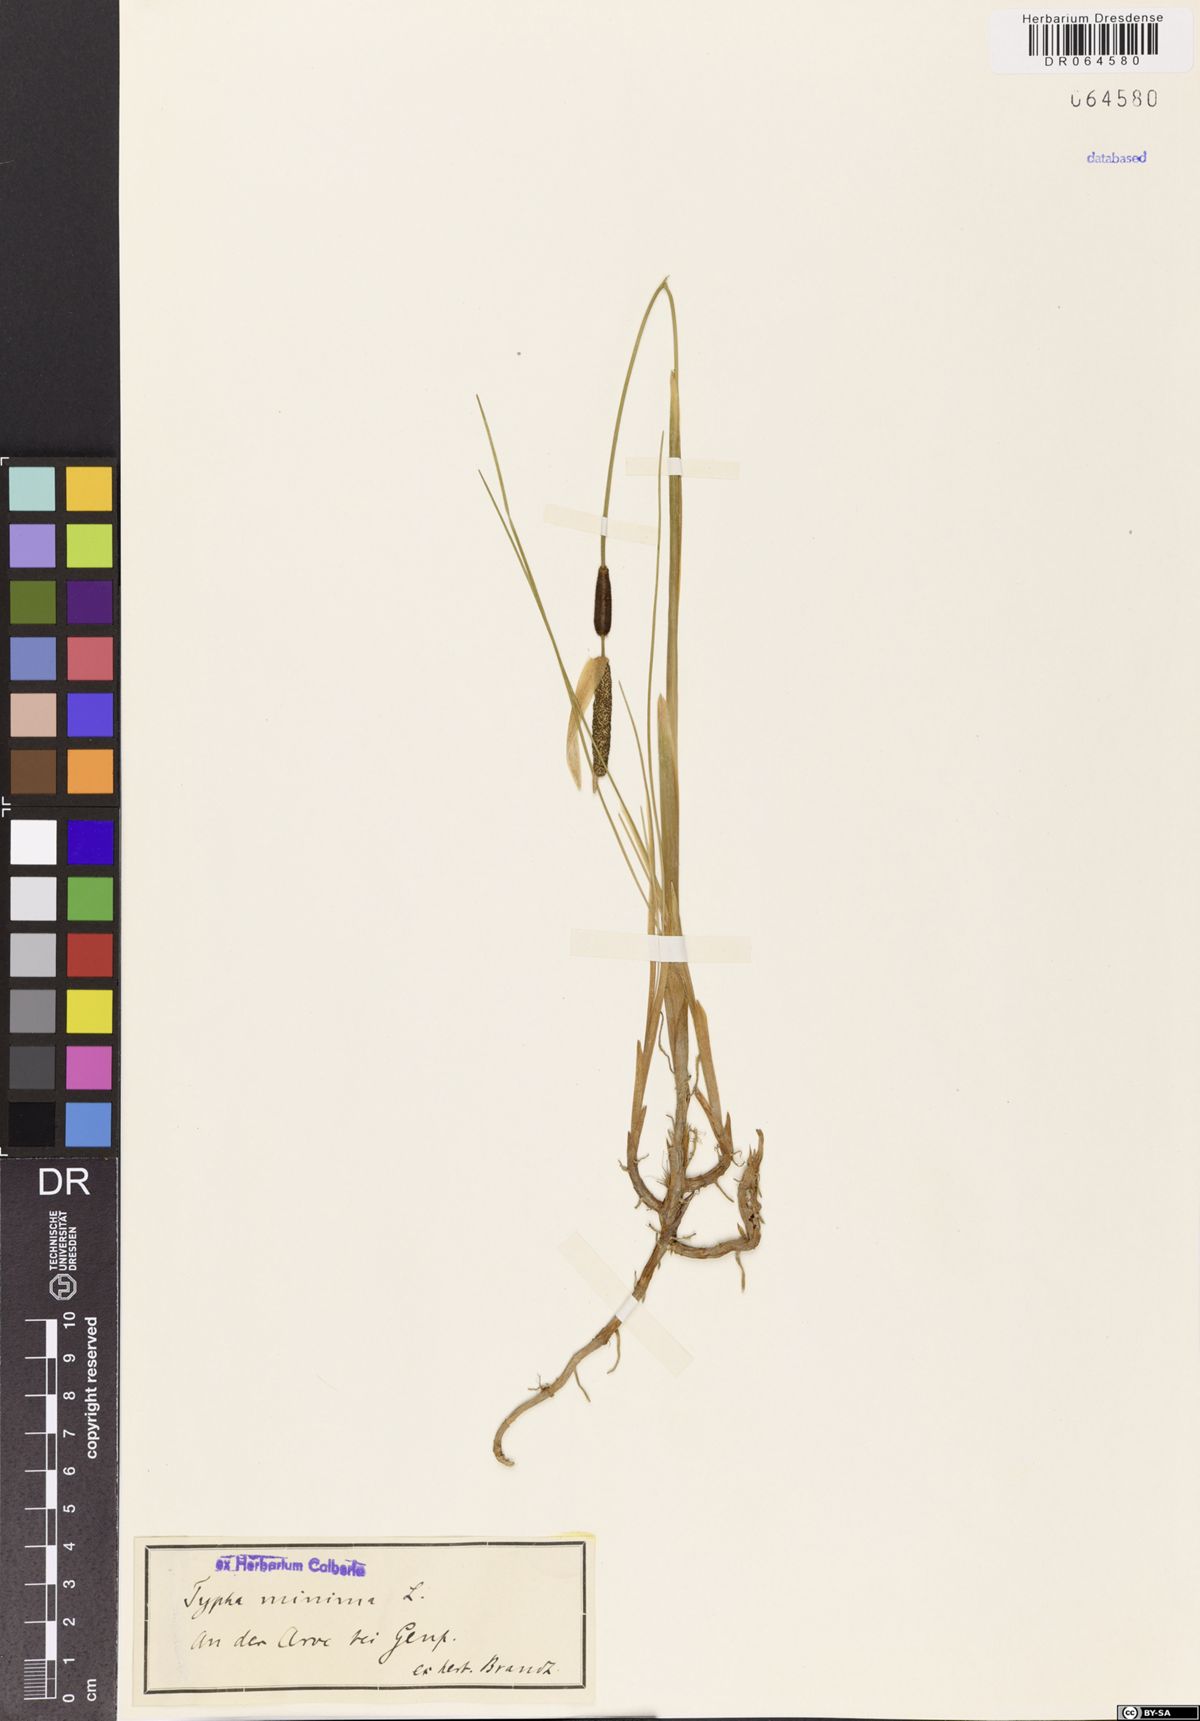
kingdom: Plantae
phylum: Tracheophyta
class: Liliopsida
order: Poales
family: Typhaceae
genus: Typha
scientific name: Typha minima
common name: Dwarf bulrush
